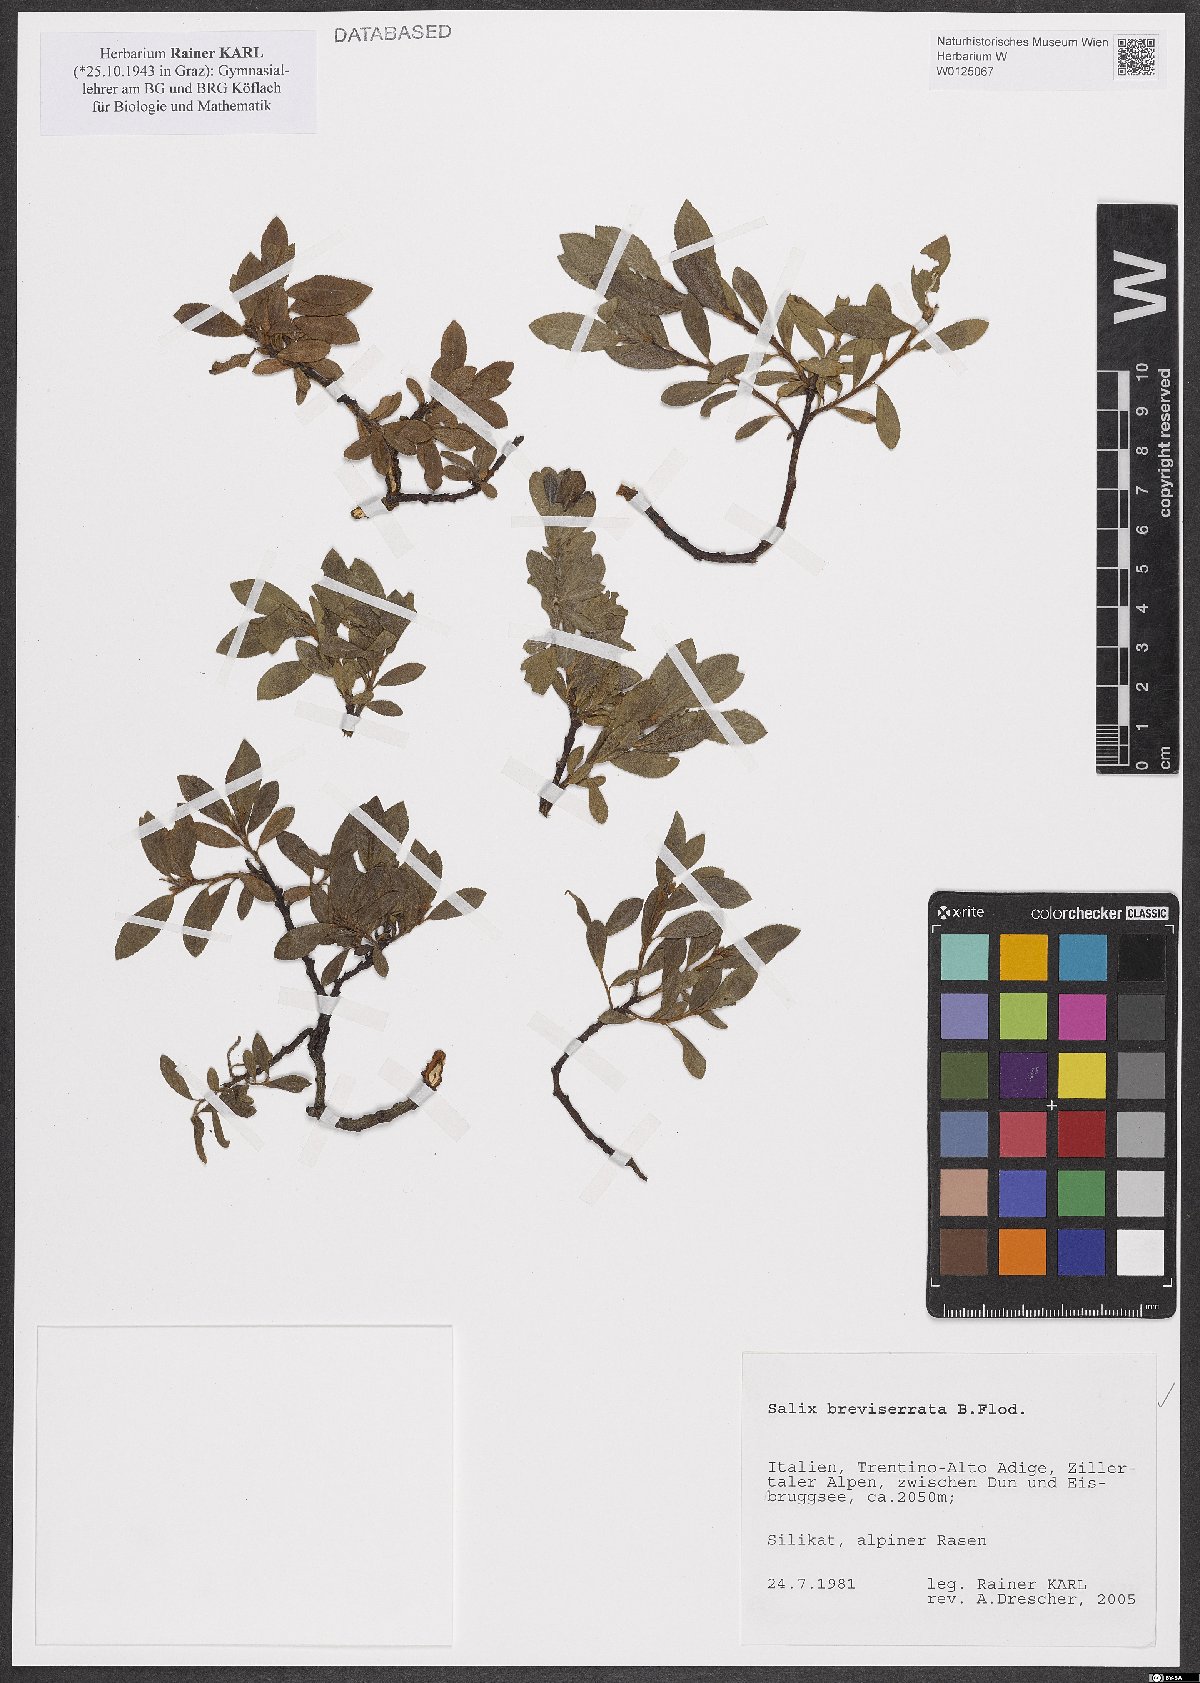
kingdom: Plantae
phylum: Tracheophyta
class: Magnoliopsida
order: Malpighiales
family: Salicaceae
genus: Salix
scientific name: Salix breviserrata
